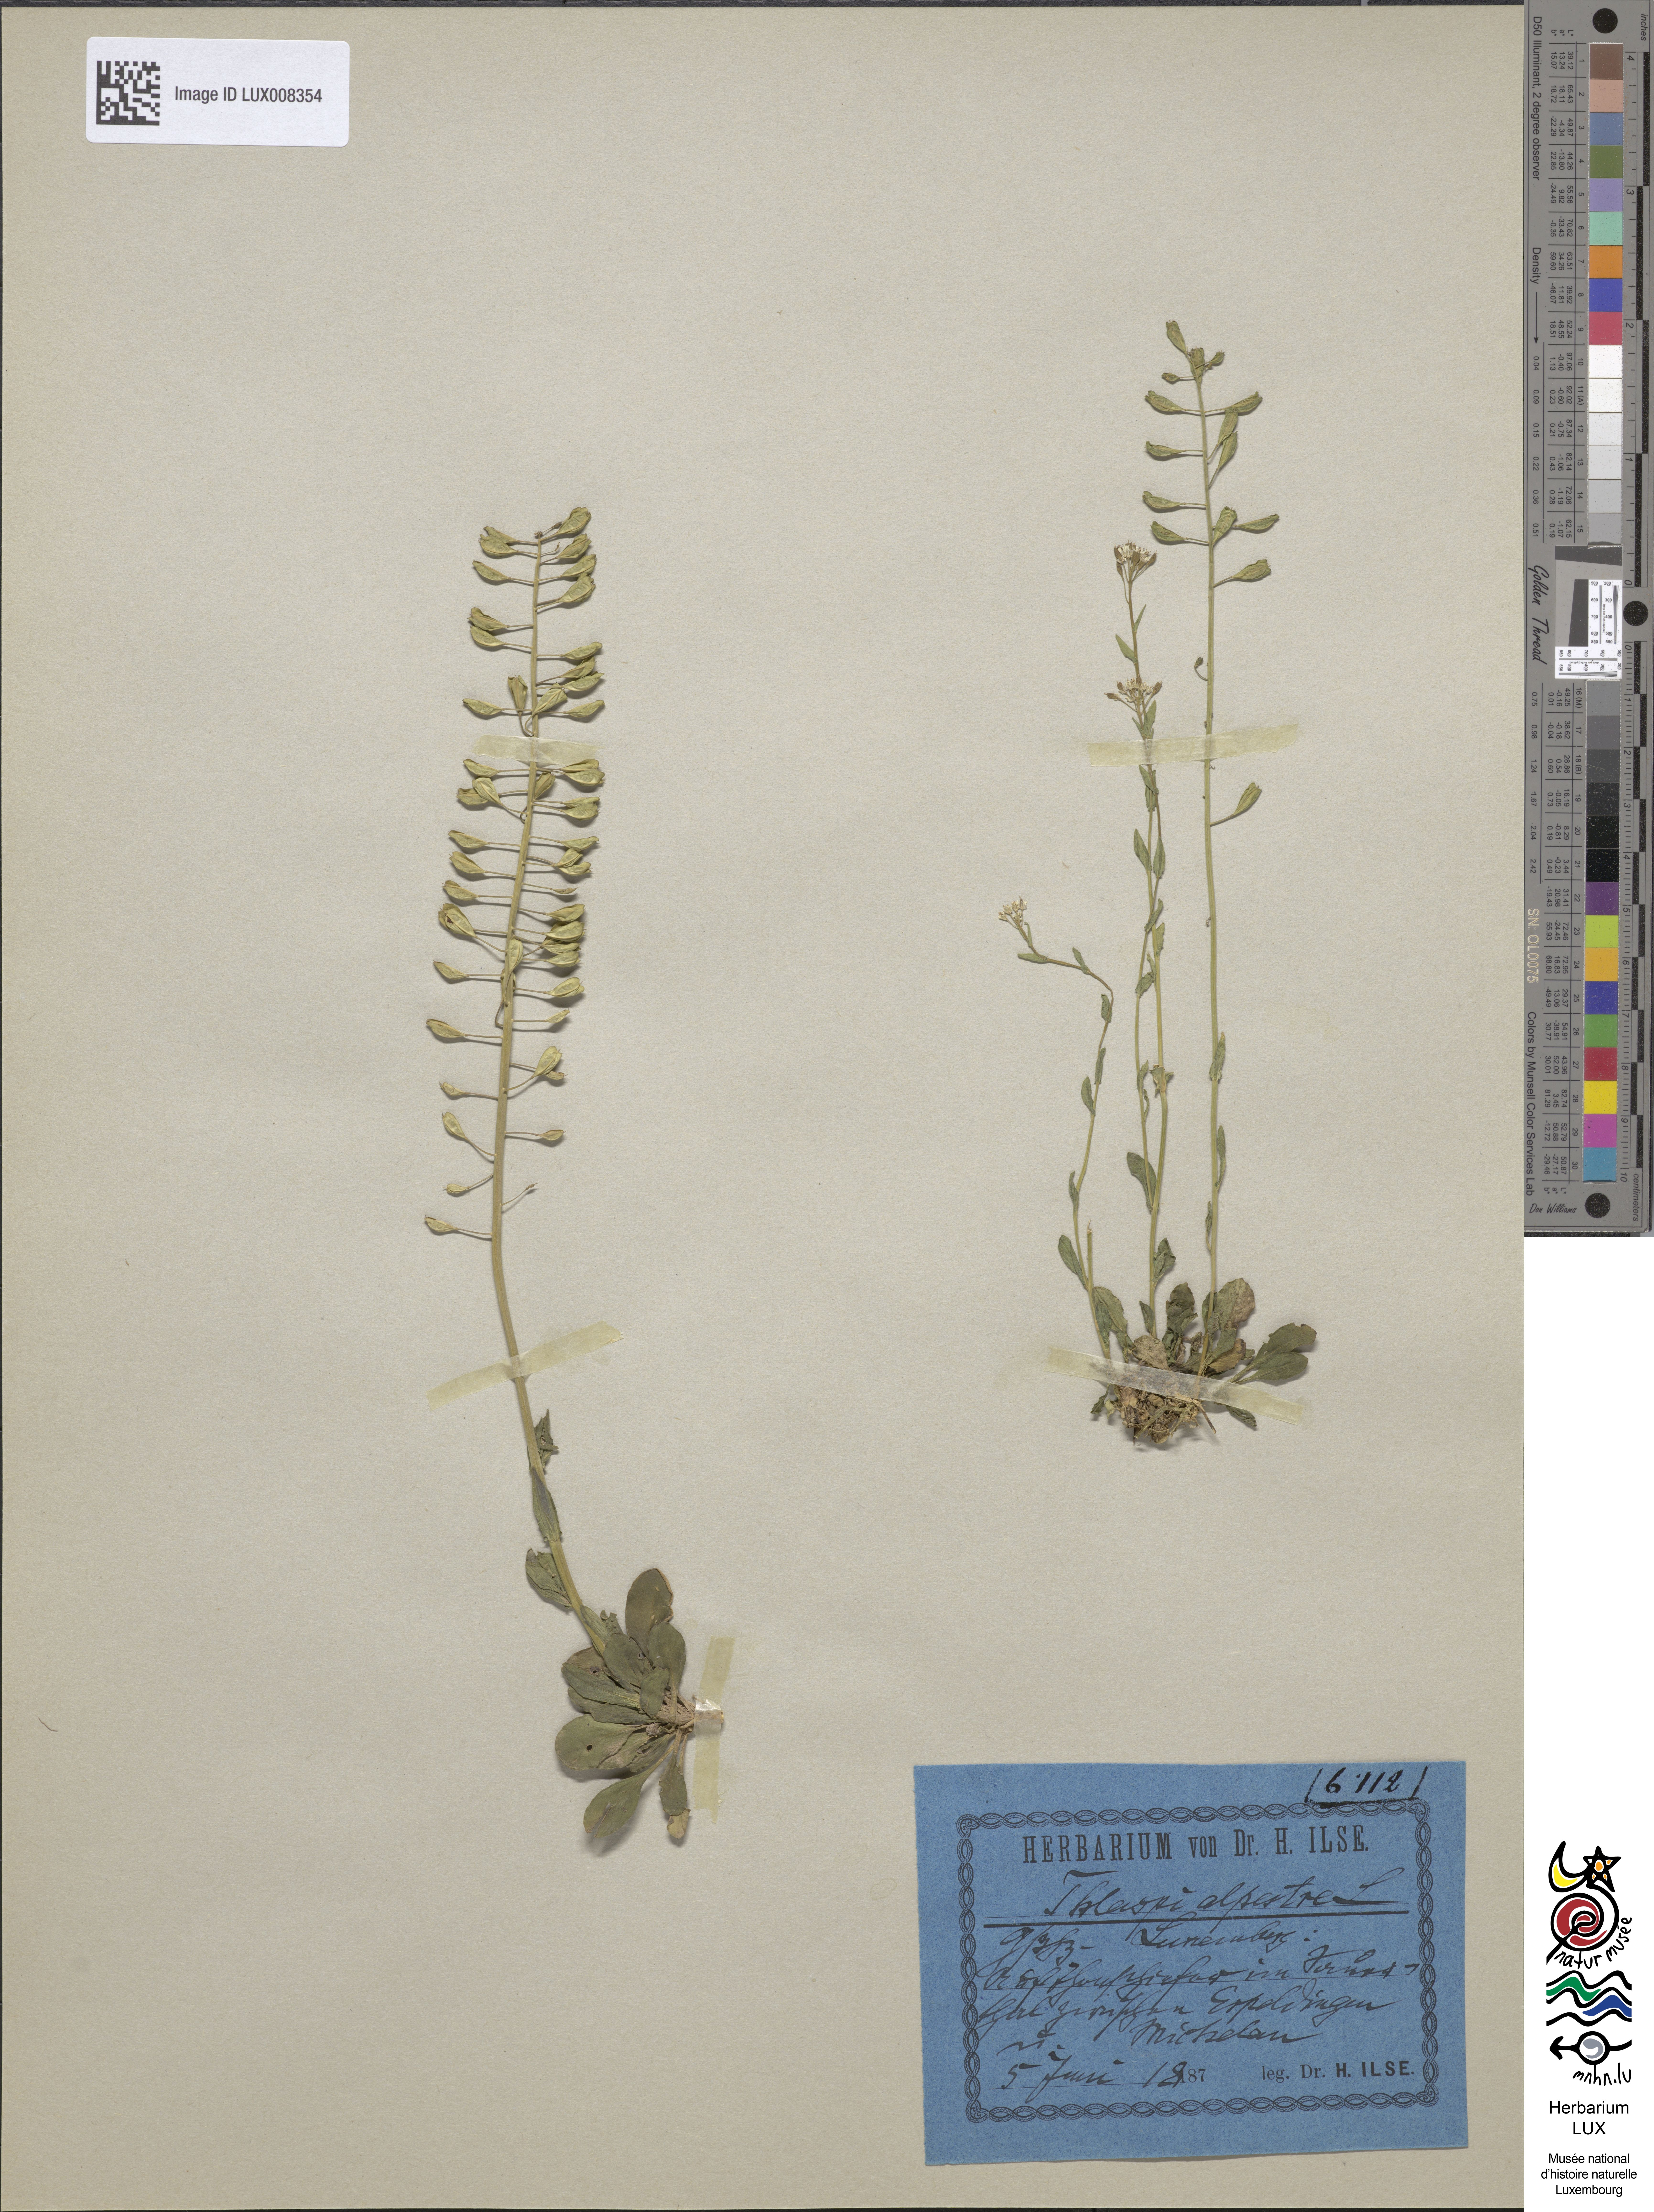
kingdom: Plantae
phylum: Tracheophyta
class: Magnoliopsida
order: Brassicales
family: Brassicaceae
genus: Noccaea
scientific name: Noccaea caerulescens
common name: Alpine pennycress
